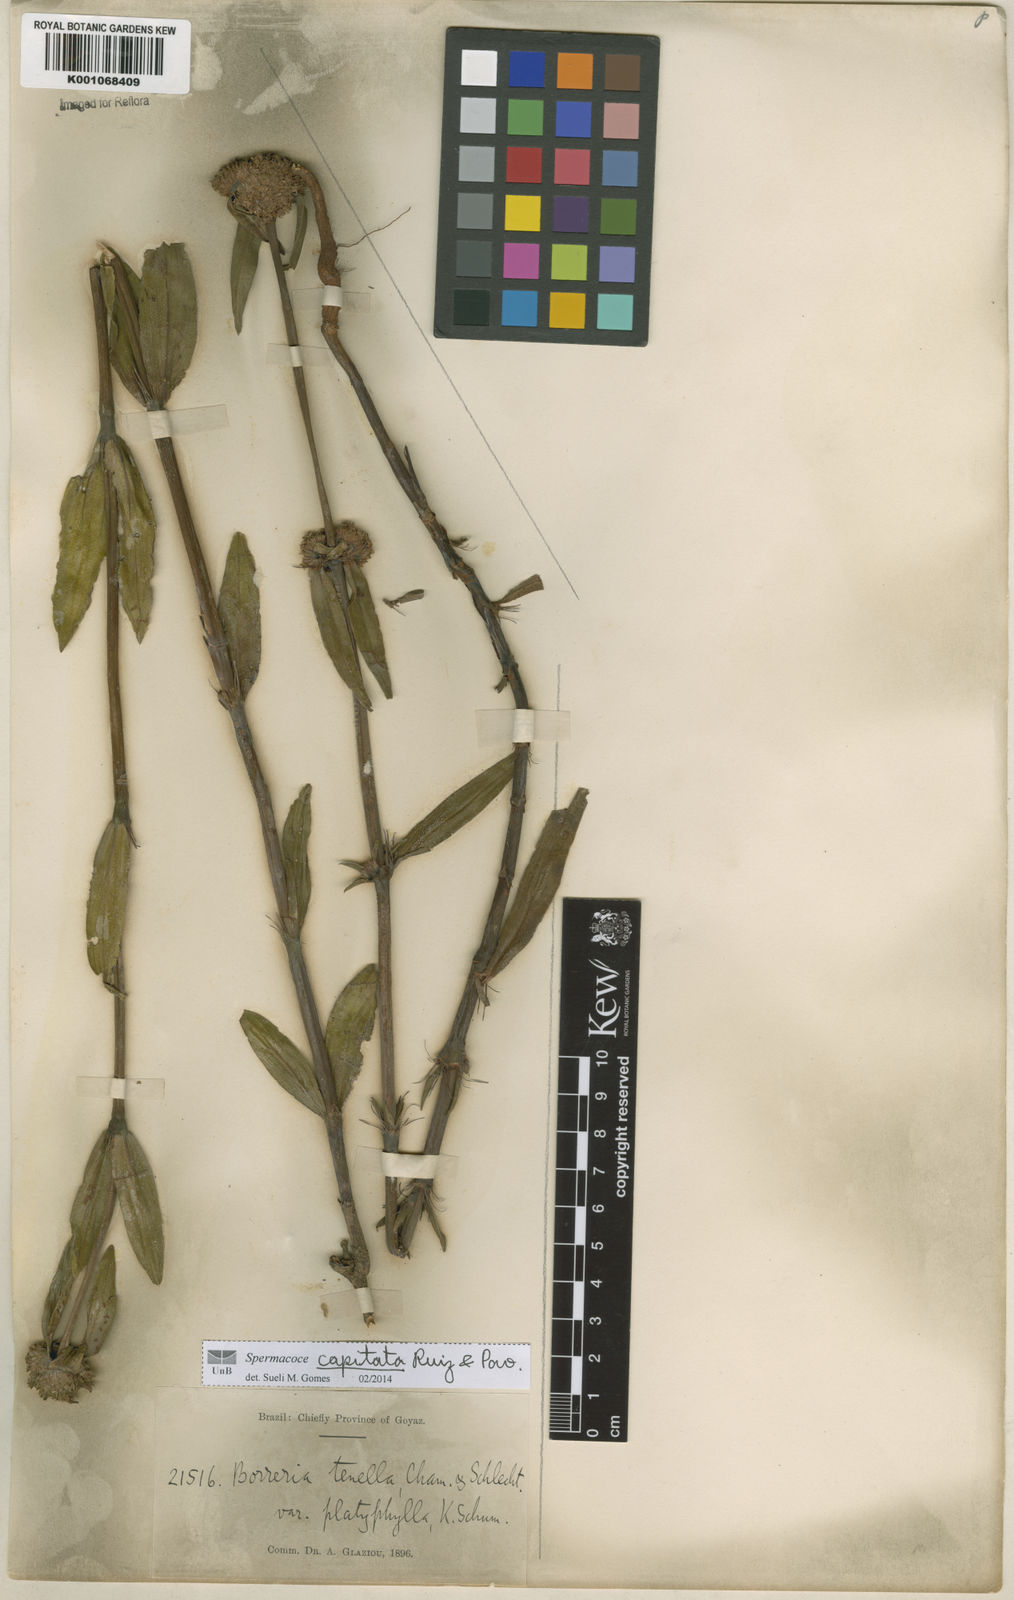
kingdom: Plantae
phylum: Tracheophyta
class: Magnoliopsida
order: Gentianales
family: Rubiaceae
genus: Spermacoce
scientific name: Spermacoce capitata
